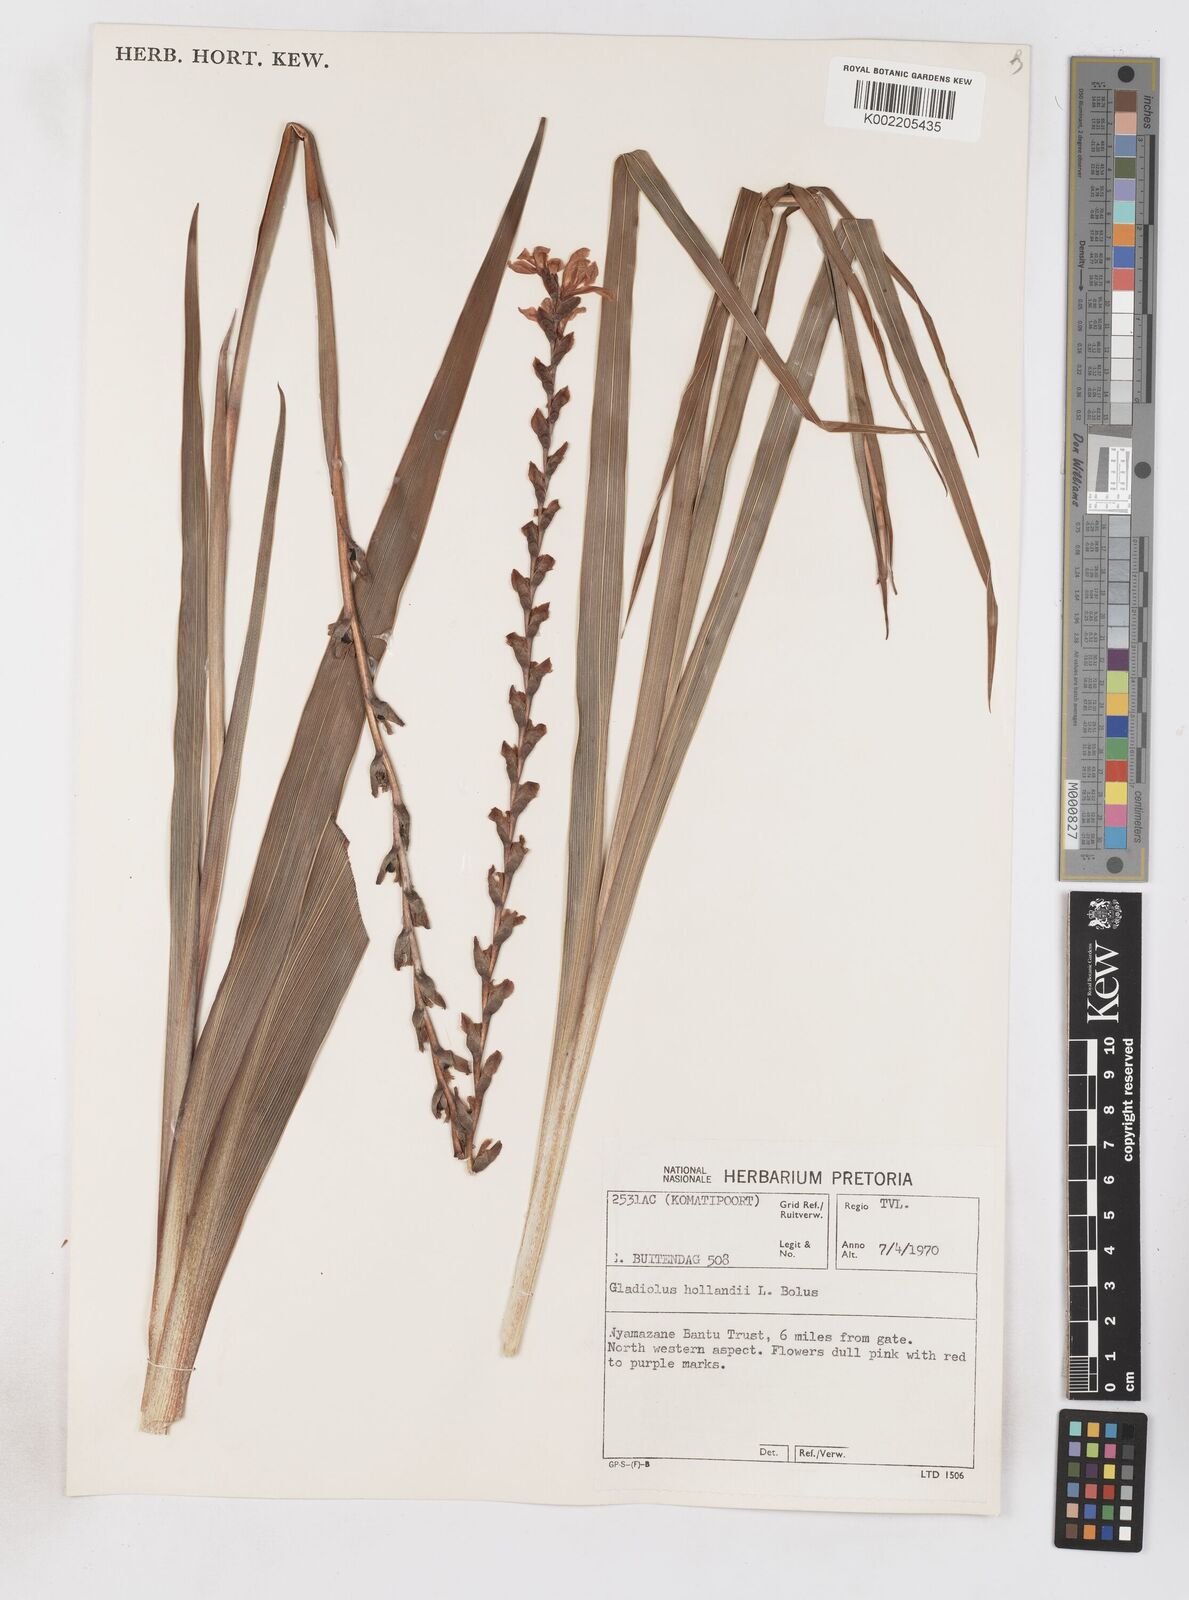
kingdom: Plantae
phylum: Tracheophyta
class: Liliopsida
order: Asparagales
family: Iridaceae
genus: Gladiolus
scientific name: Gladiolus densiflorus
